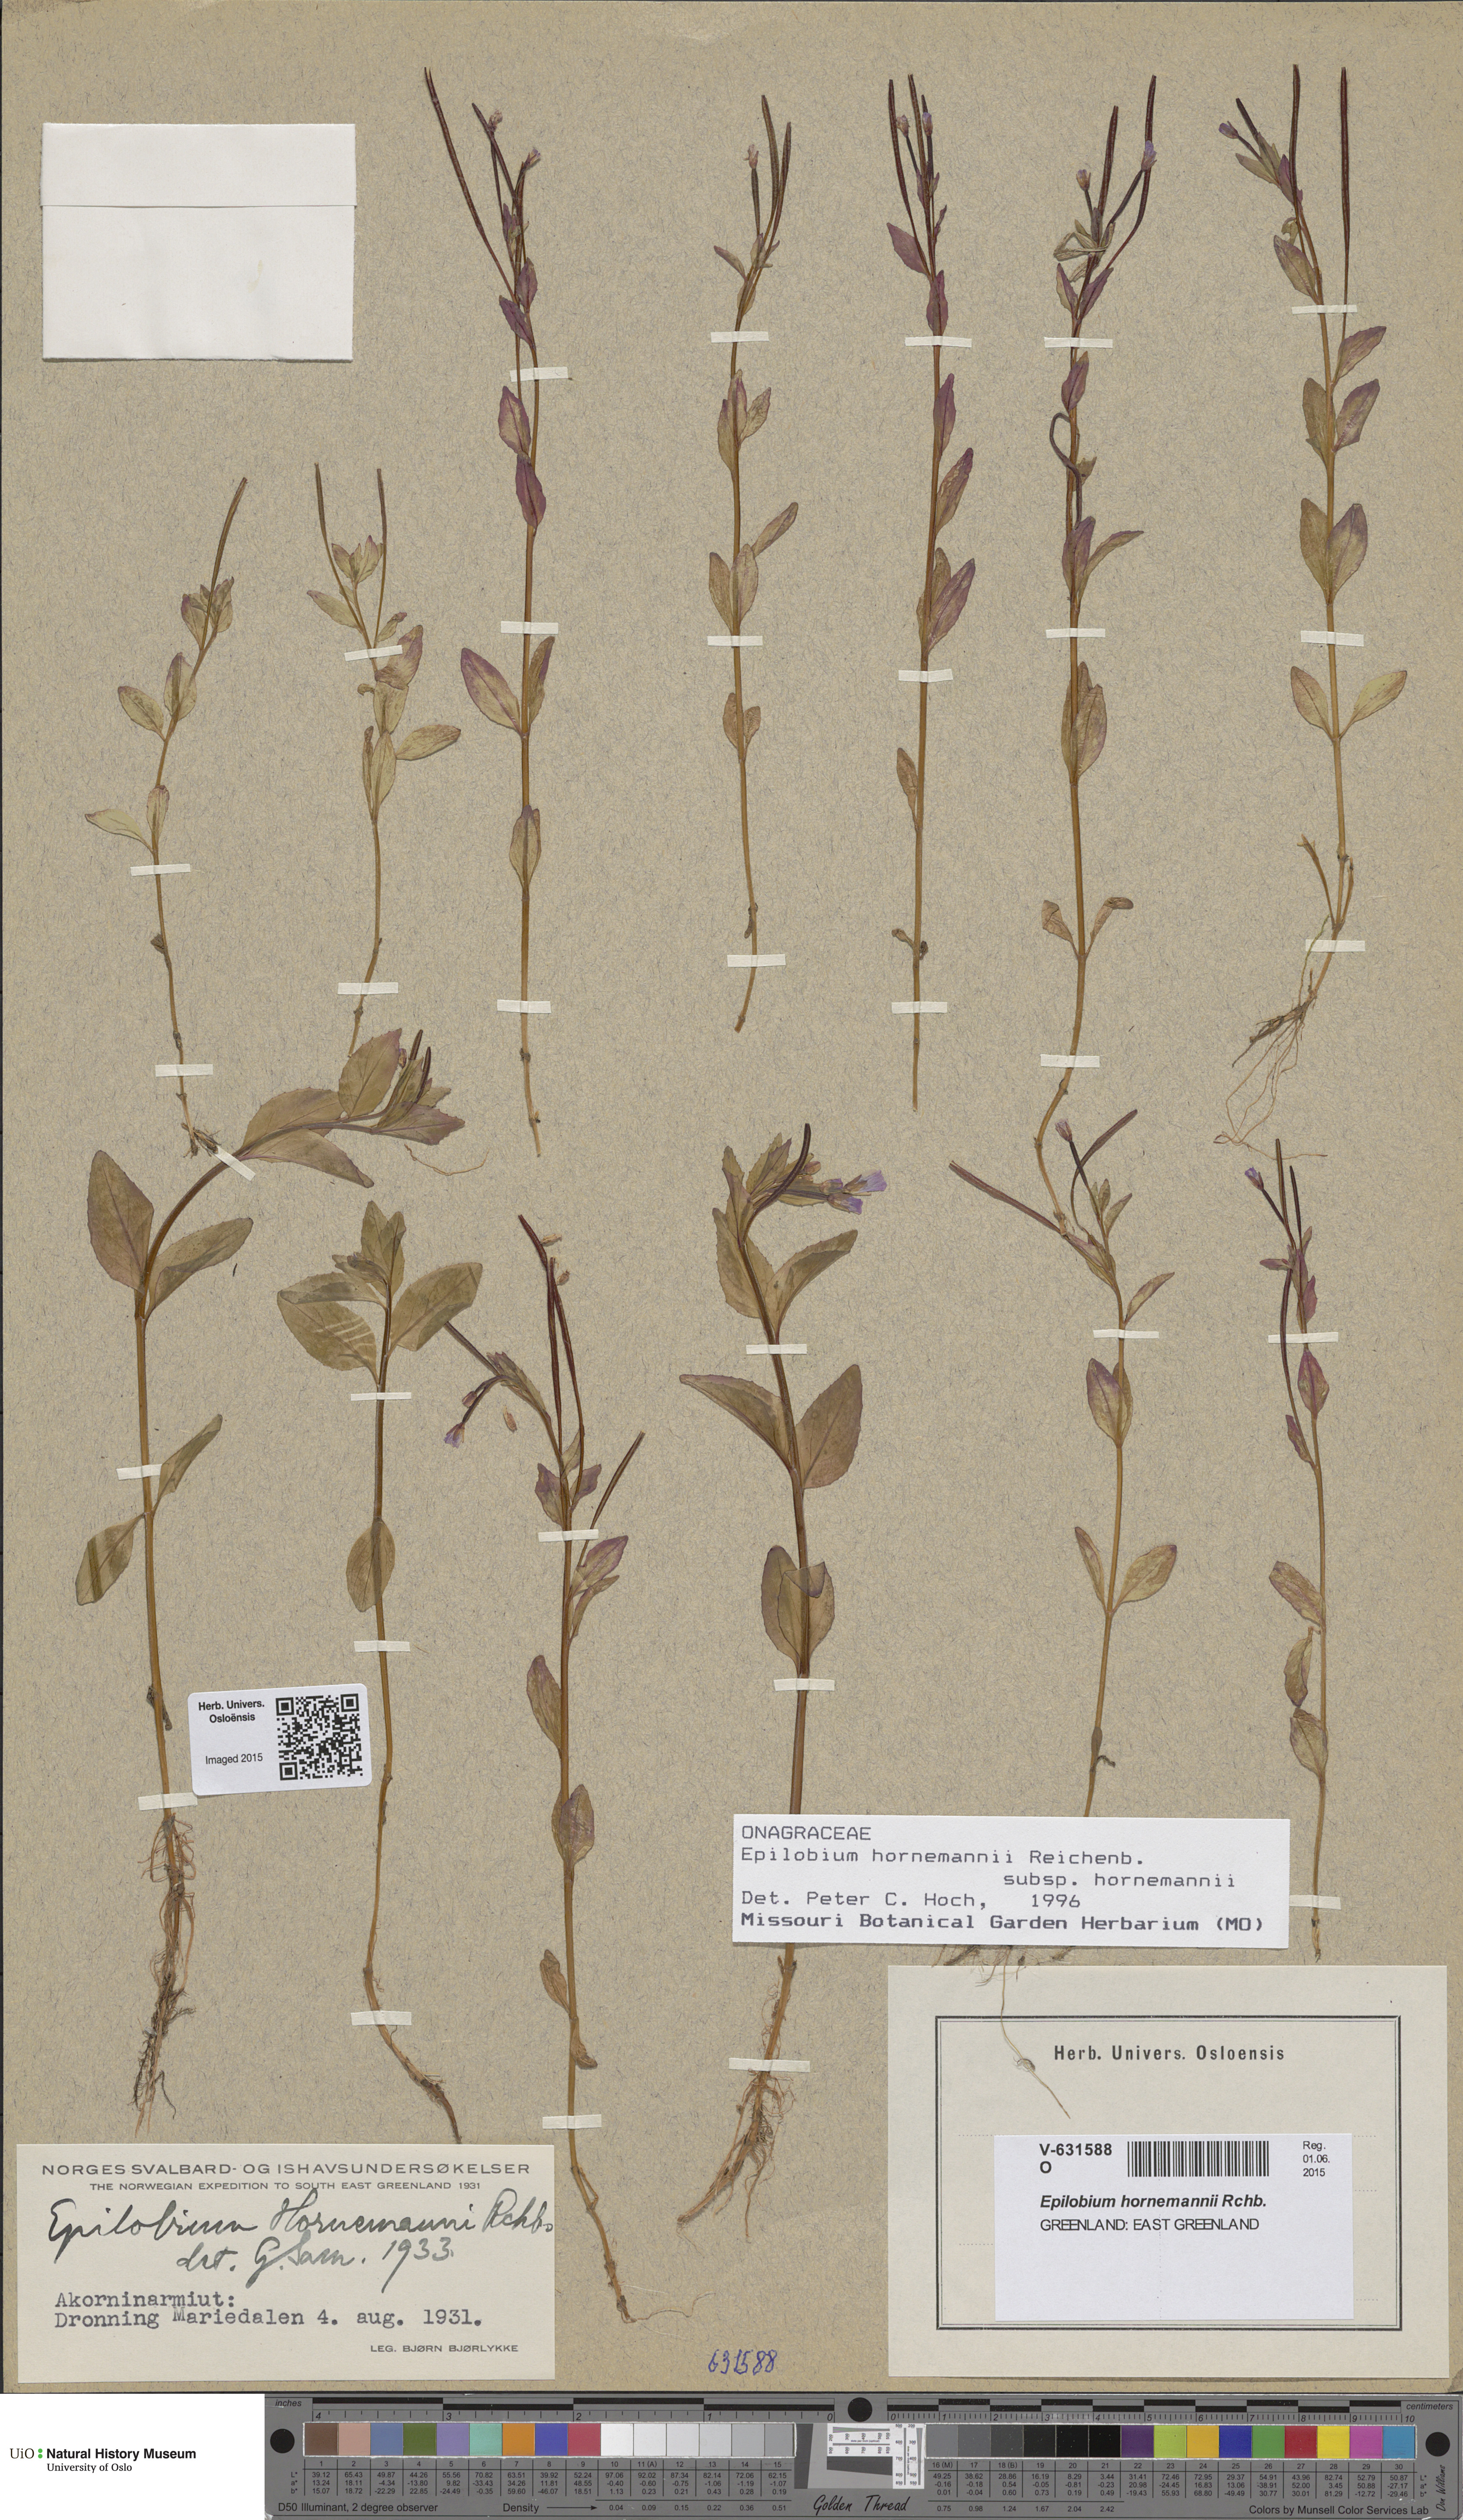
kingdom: Plantae
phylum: Tracheophyta
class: Magnoliopsida
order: Myrtales
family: Onagraceae
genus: Epilobium
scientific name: Epilobium hornemannii
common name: Hornemann's willowherb
